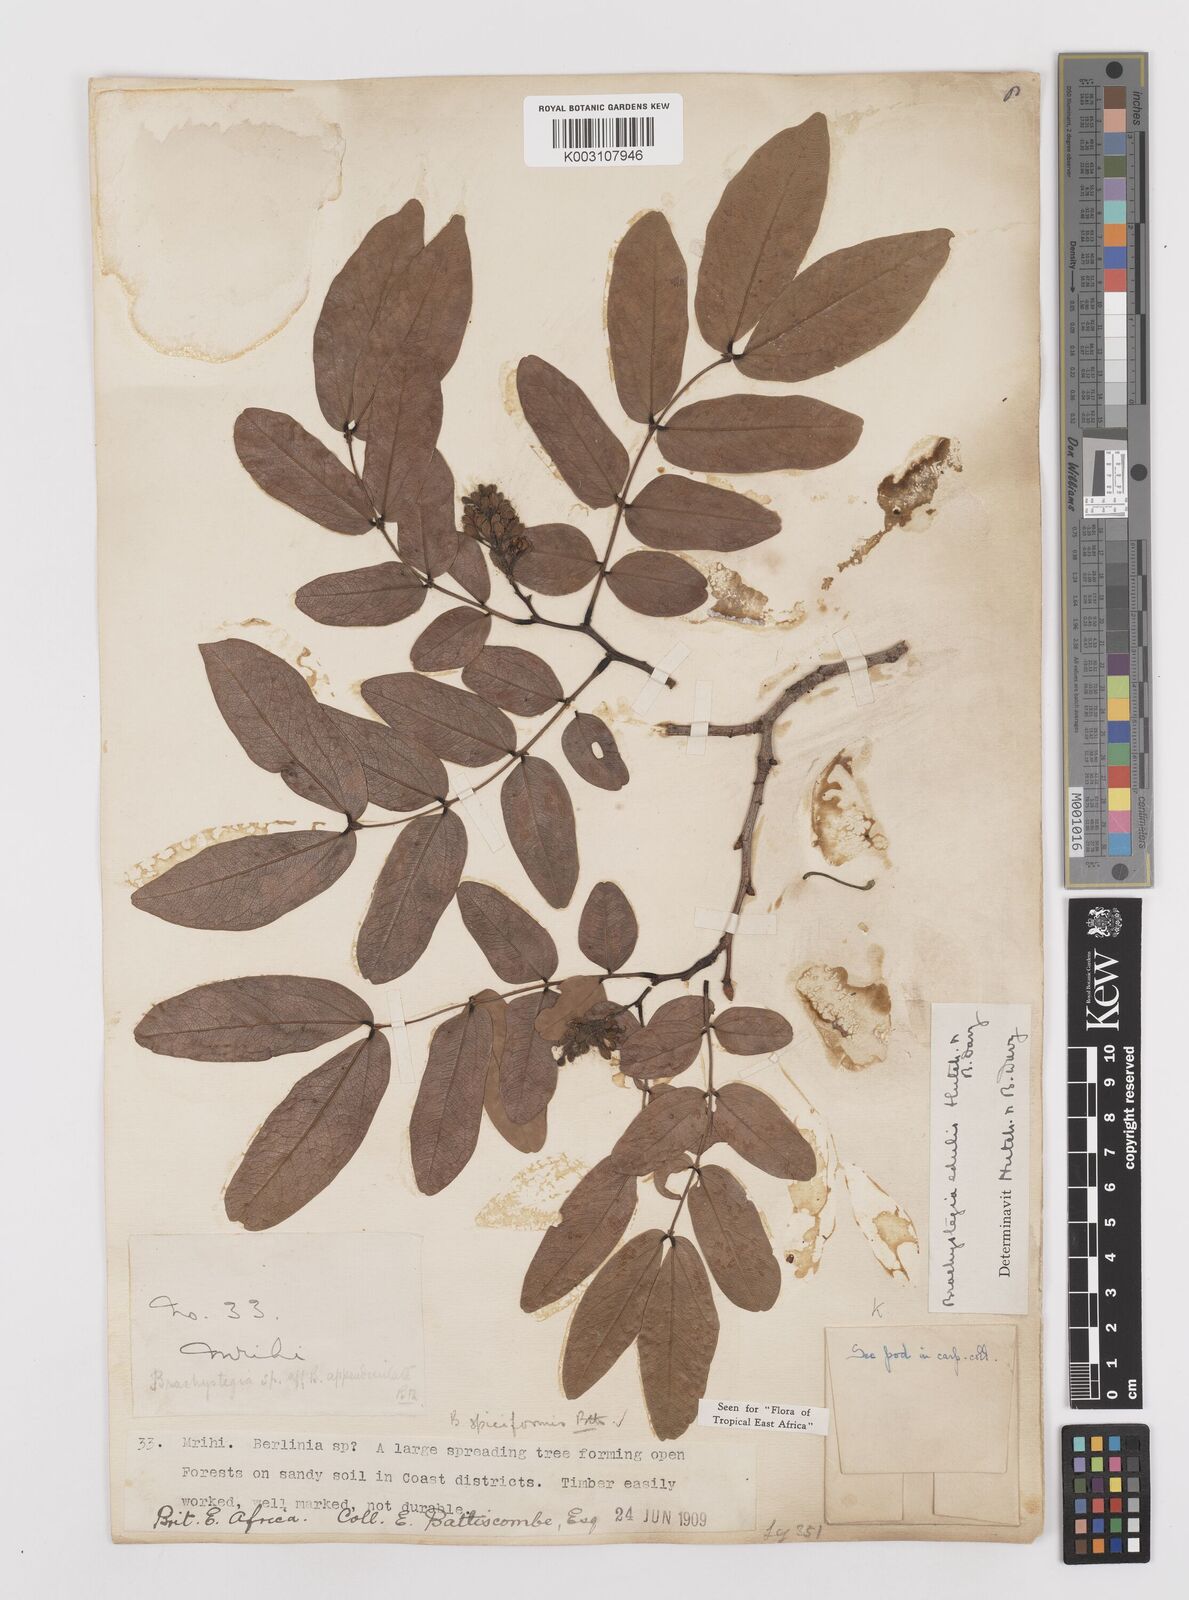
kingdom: Plantae
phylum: Tracheophyta
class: Magnoliopsida
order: Fabales
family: Fabaceae
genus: Brachystegia
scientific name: Brachystegia spiciformis
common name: Zebrawood
